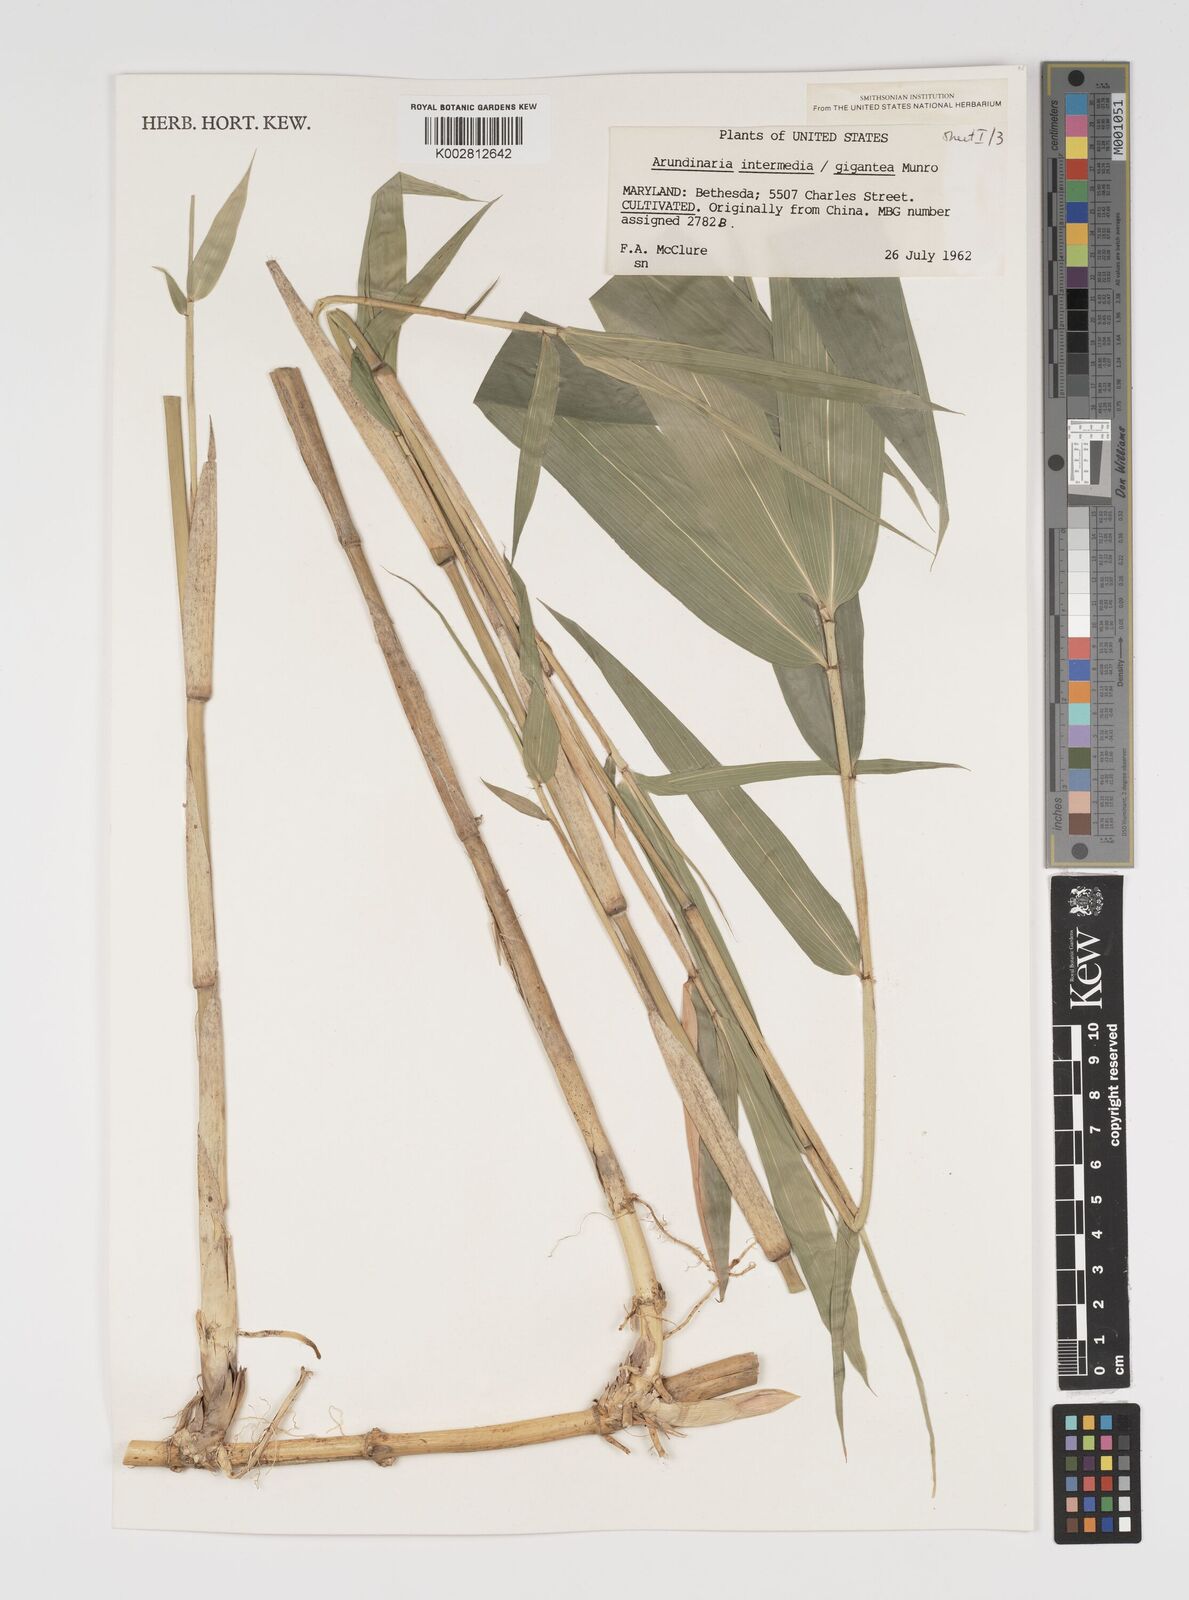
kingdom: Plantae
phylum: Tracheophyta
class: Liliopsida
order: Poales
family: Poaceae
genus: Arundinaria
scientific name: Arundinaria
